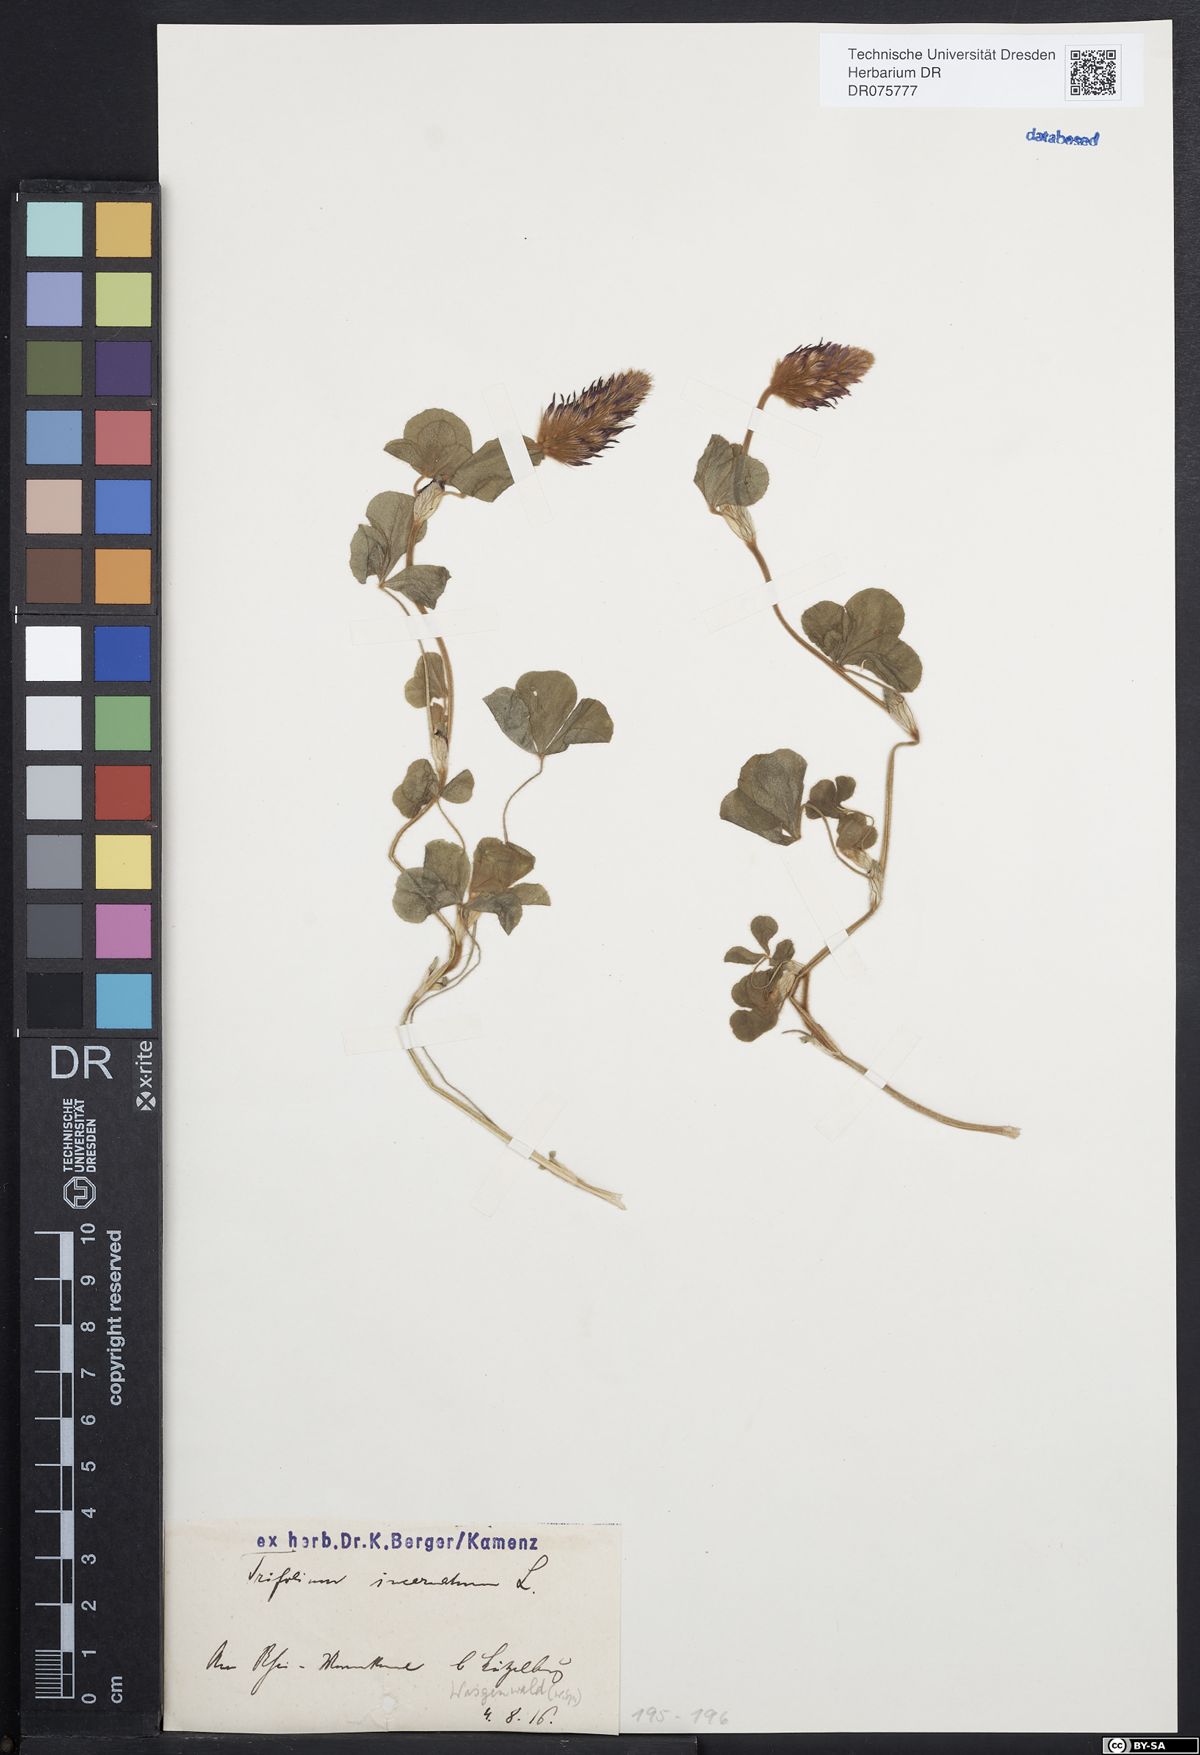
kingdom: Plantae
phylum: Tracheophyta
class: Magnoliopsida
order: Fabales
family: Fabaceae
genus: Trifolium
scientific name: Trifolium incarnatum
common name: Crimson clover
